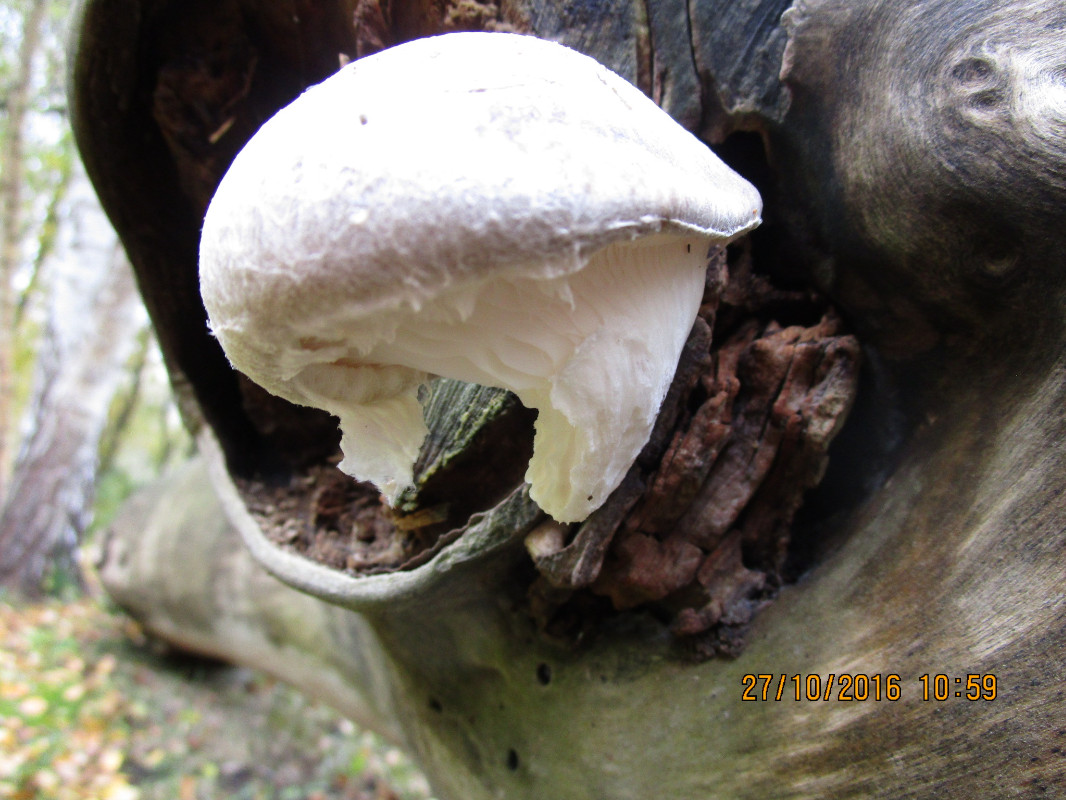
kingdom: Fungi
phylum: Basidiomycota
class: Agaricomycetes
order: Agaricales
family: Pleurotaceae
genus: Pleurotus
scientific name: Pleurotus dryinus
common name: korkagtig østershat
